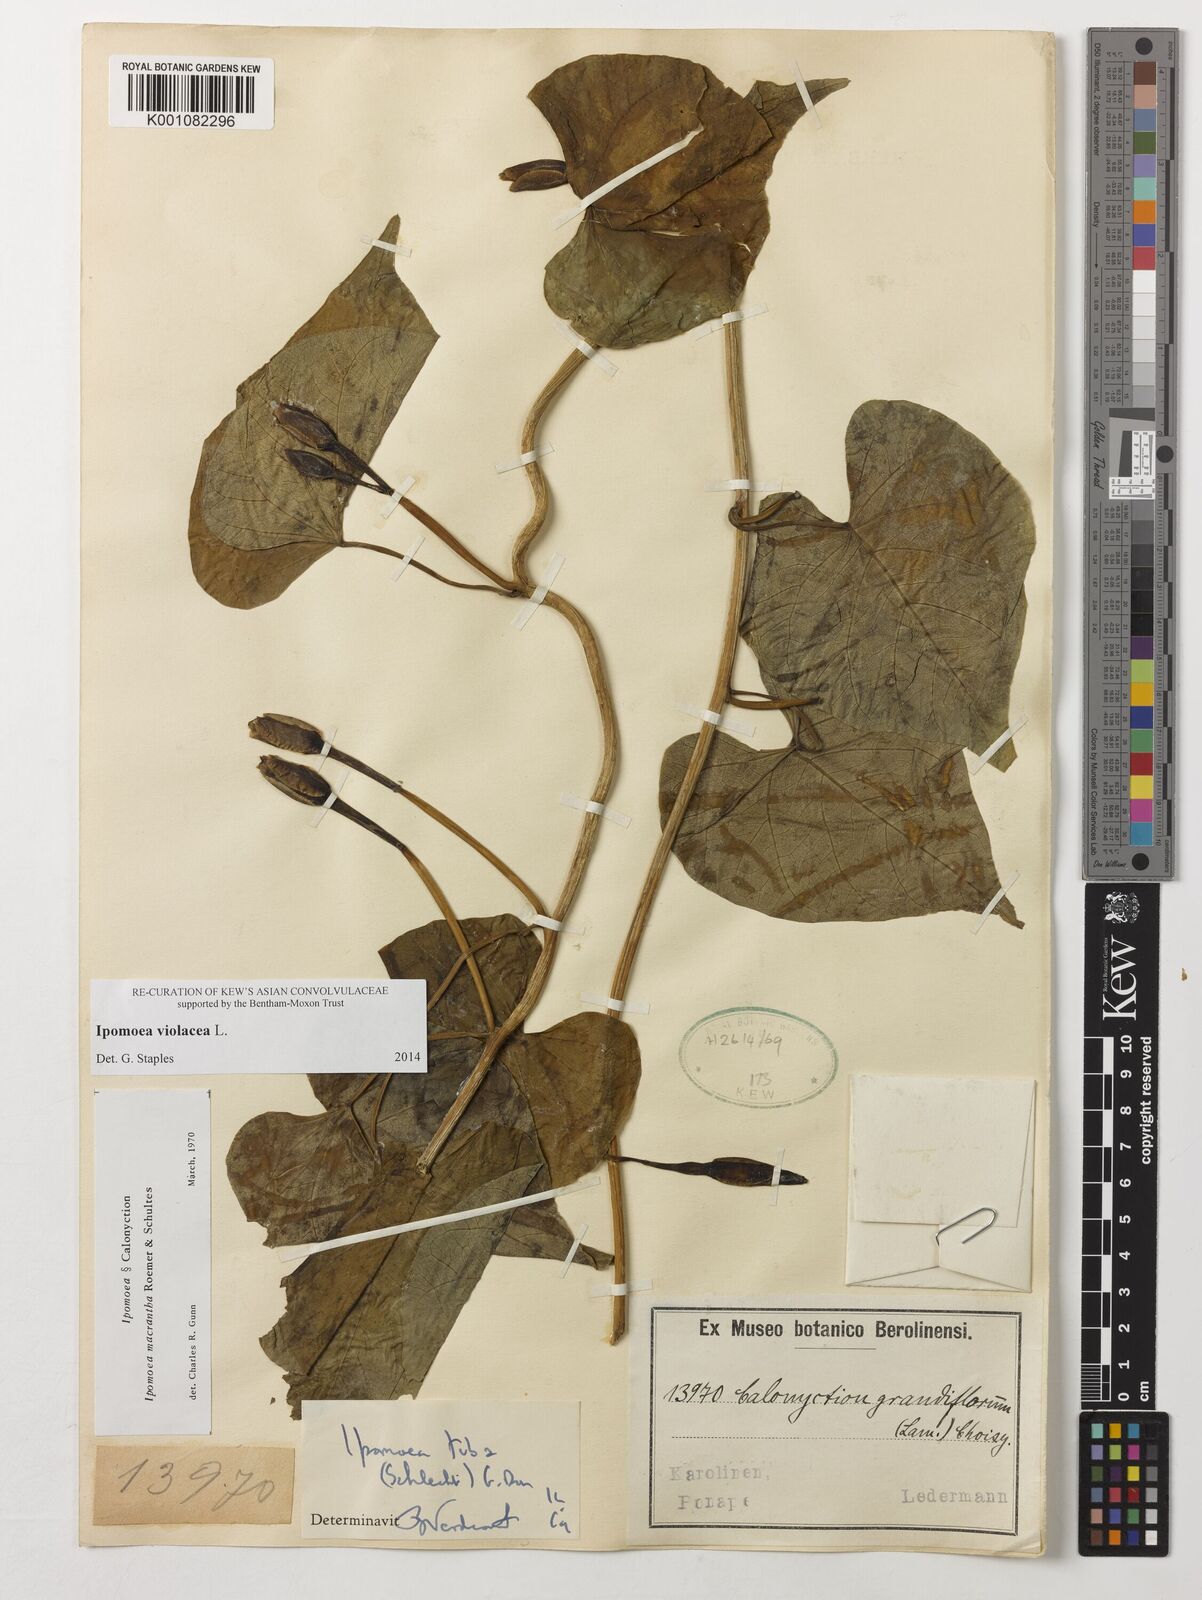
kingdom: Plantae
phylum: Tracheophyta
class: Magnoliopsida
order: Solanales
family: Convolvulaceae
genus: Ipomoea
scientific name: Ipomoea violacea
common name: Beach moonflower
